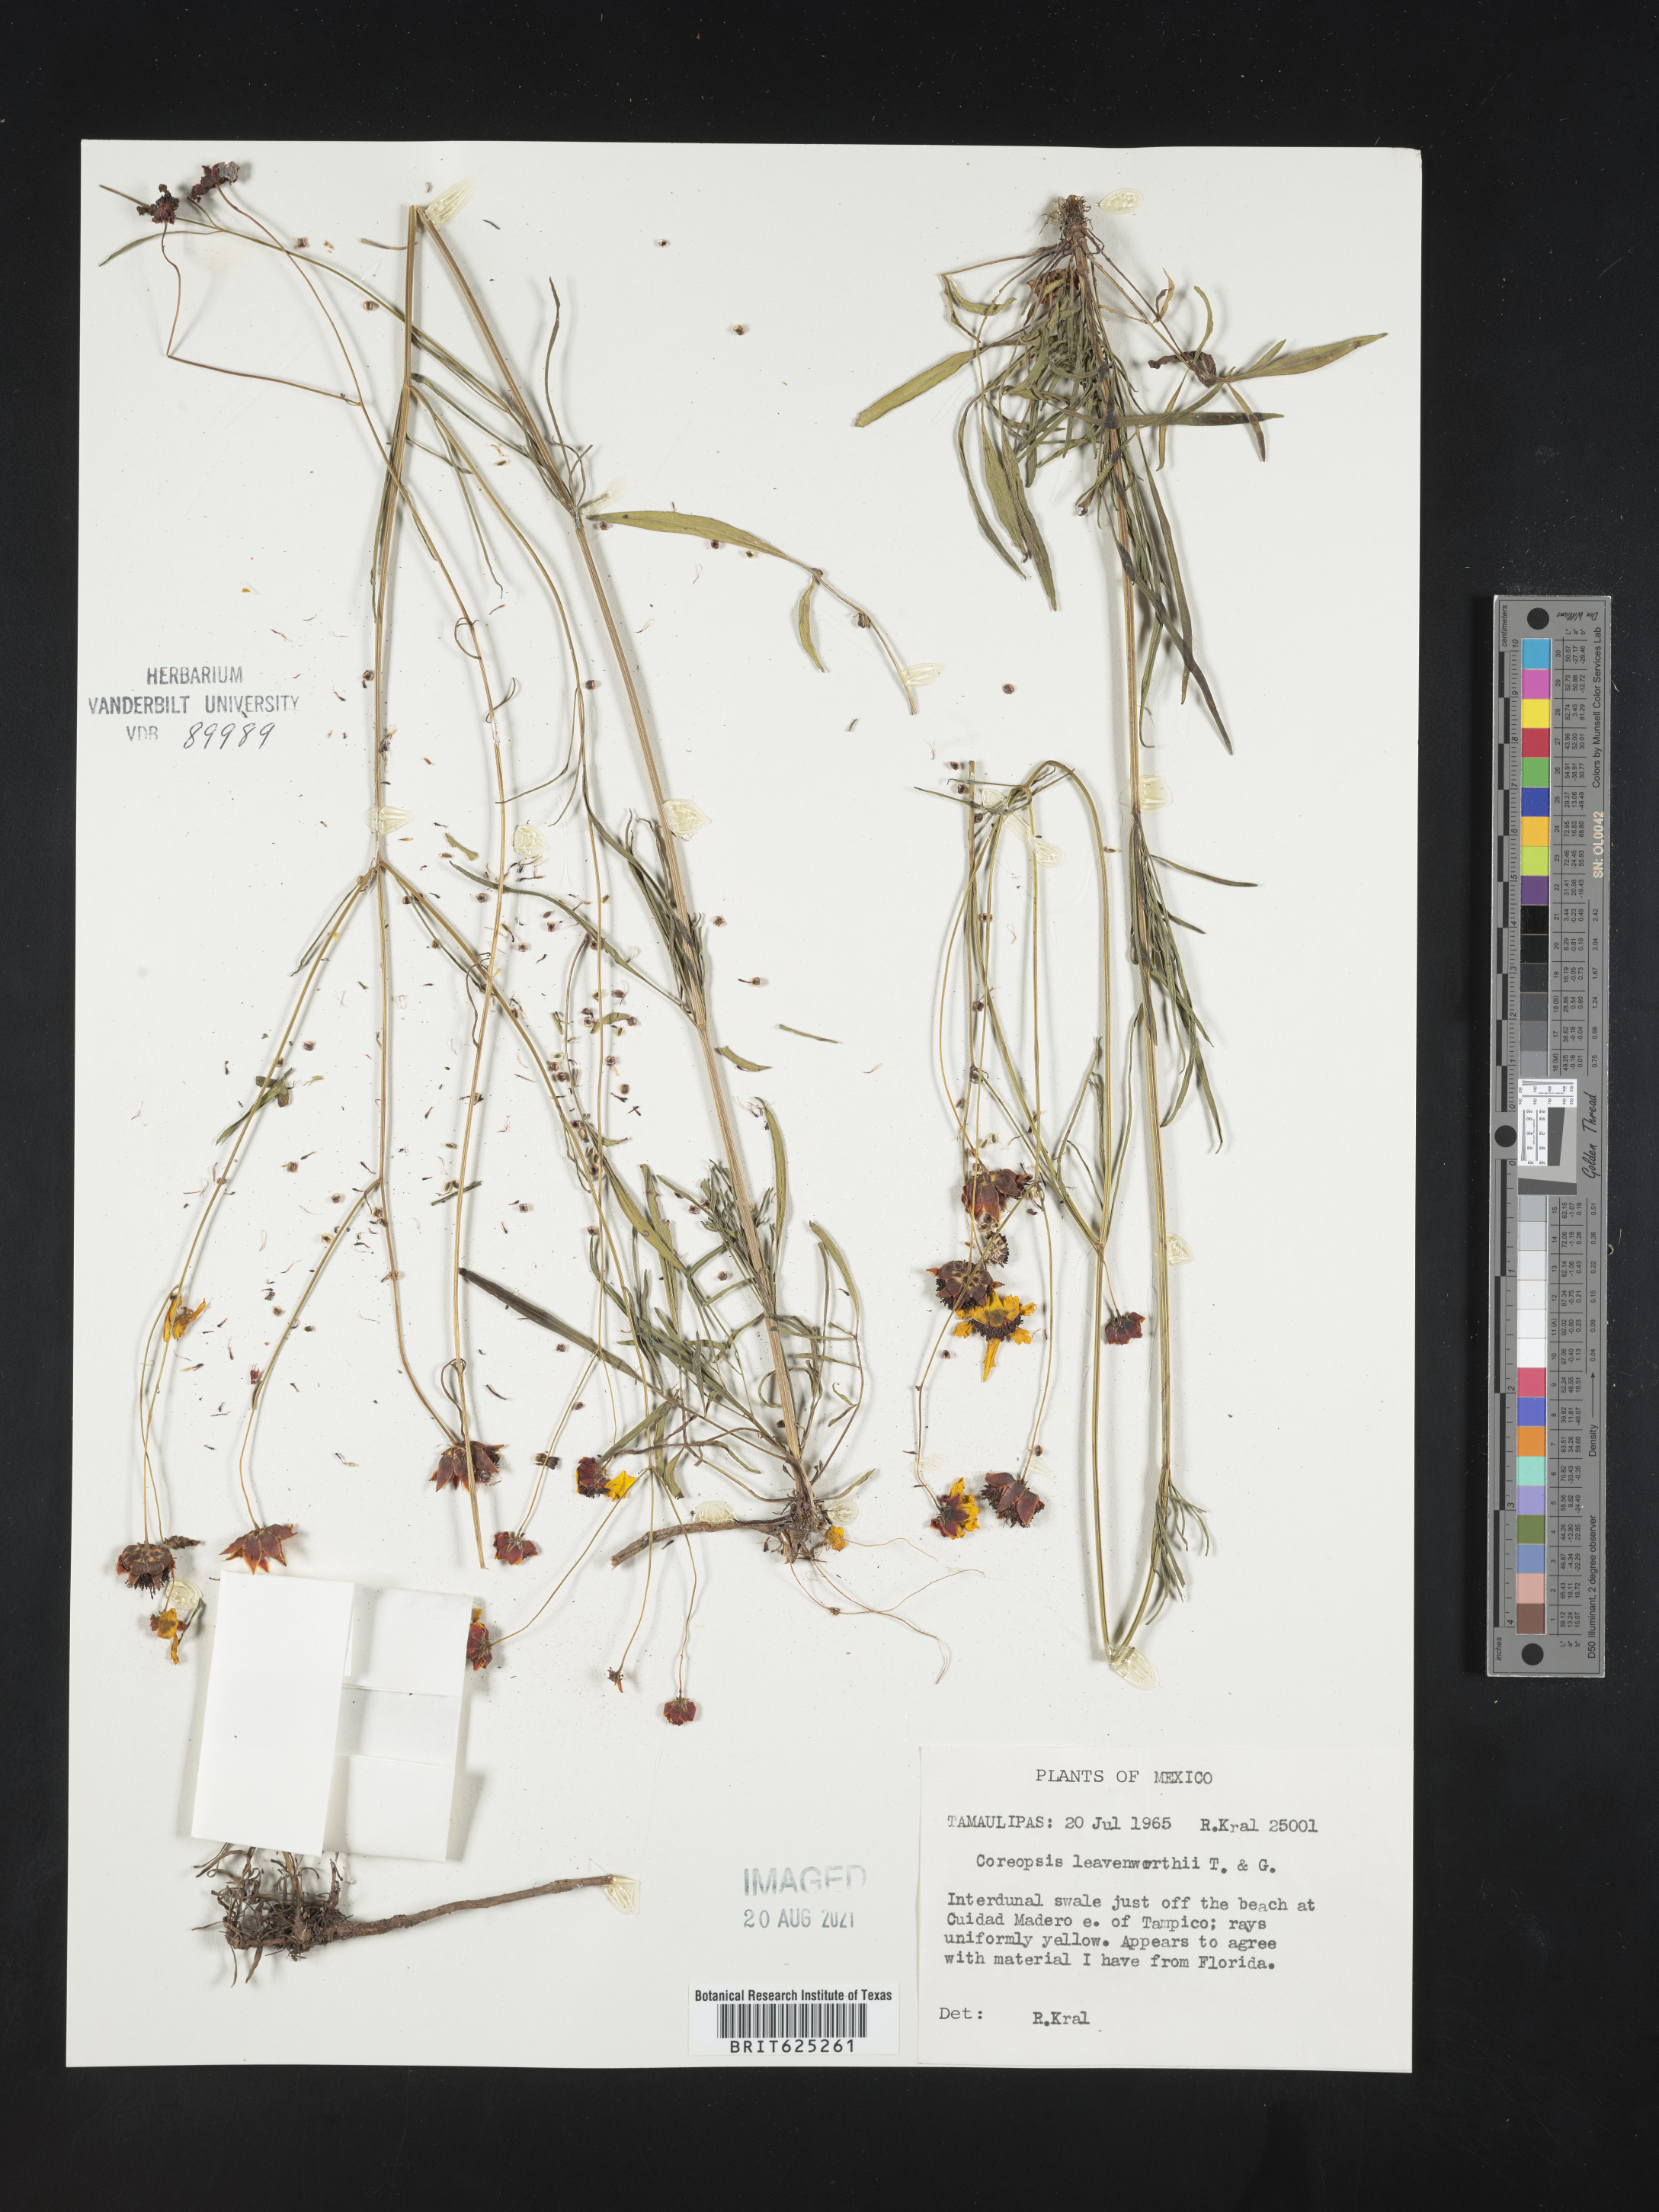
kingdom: Plantae
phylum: Tracheophyta
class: Magnoliopsida
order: Asterales
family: Asteraceae
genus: Coreopsis
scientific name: Coreopsis
